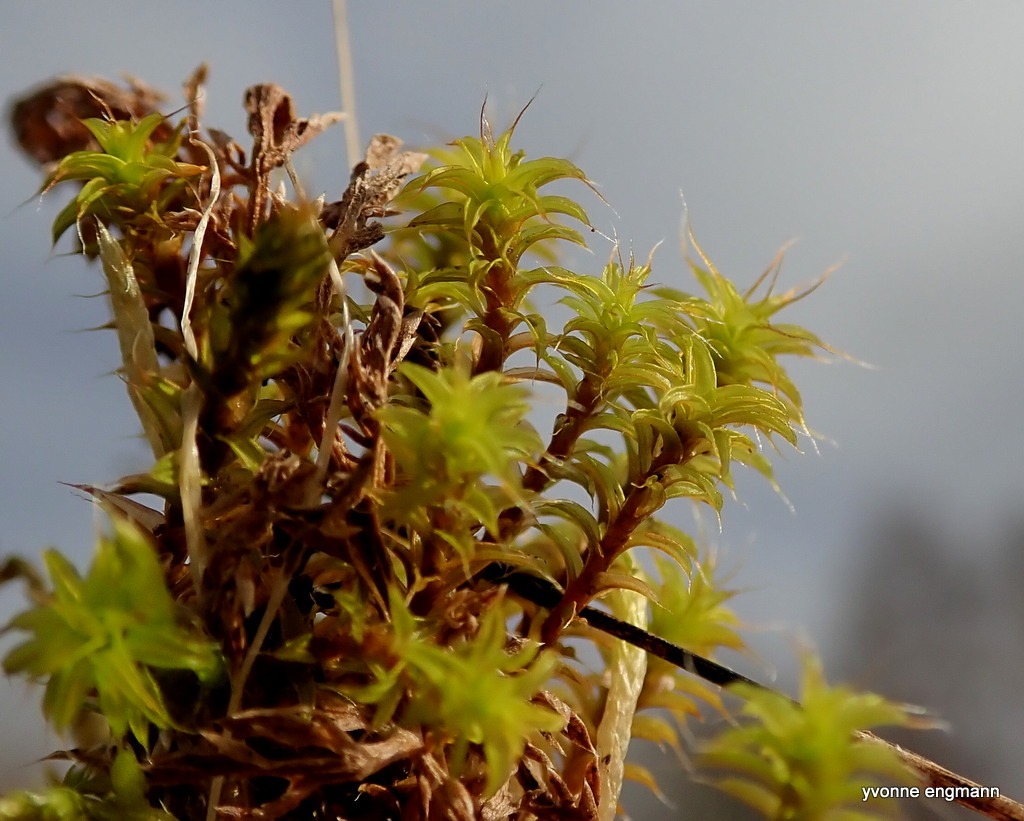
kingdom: Plantae
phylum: Bryophyta
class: Bryopsida
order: Pottiales
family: Pottiaceae
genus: Syntrichia
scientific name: Syntrichia ruralis
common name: Spidsbladet hårstjerne
